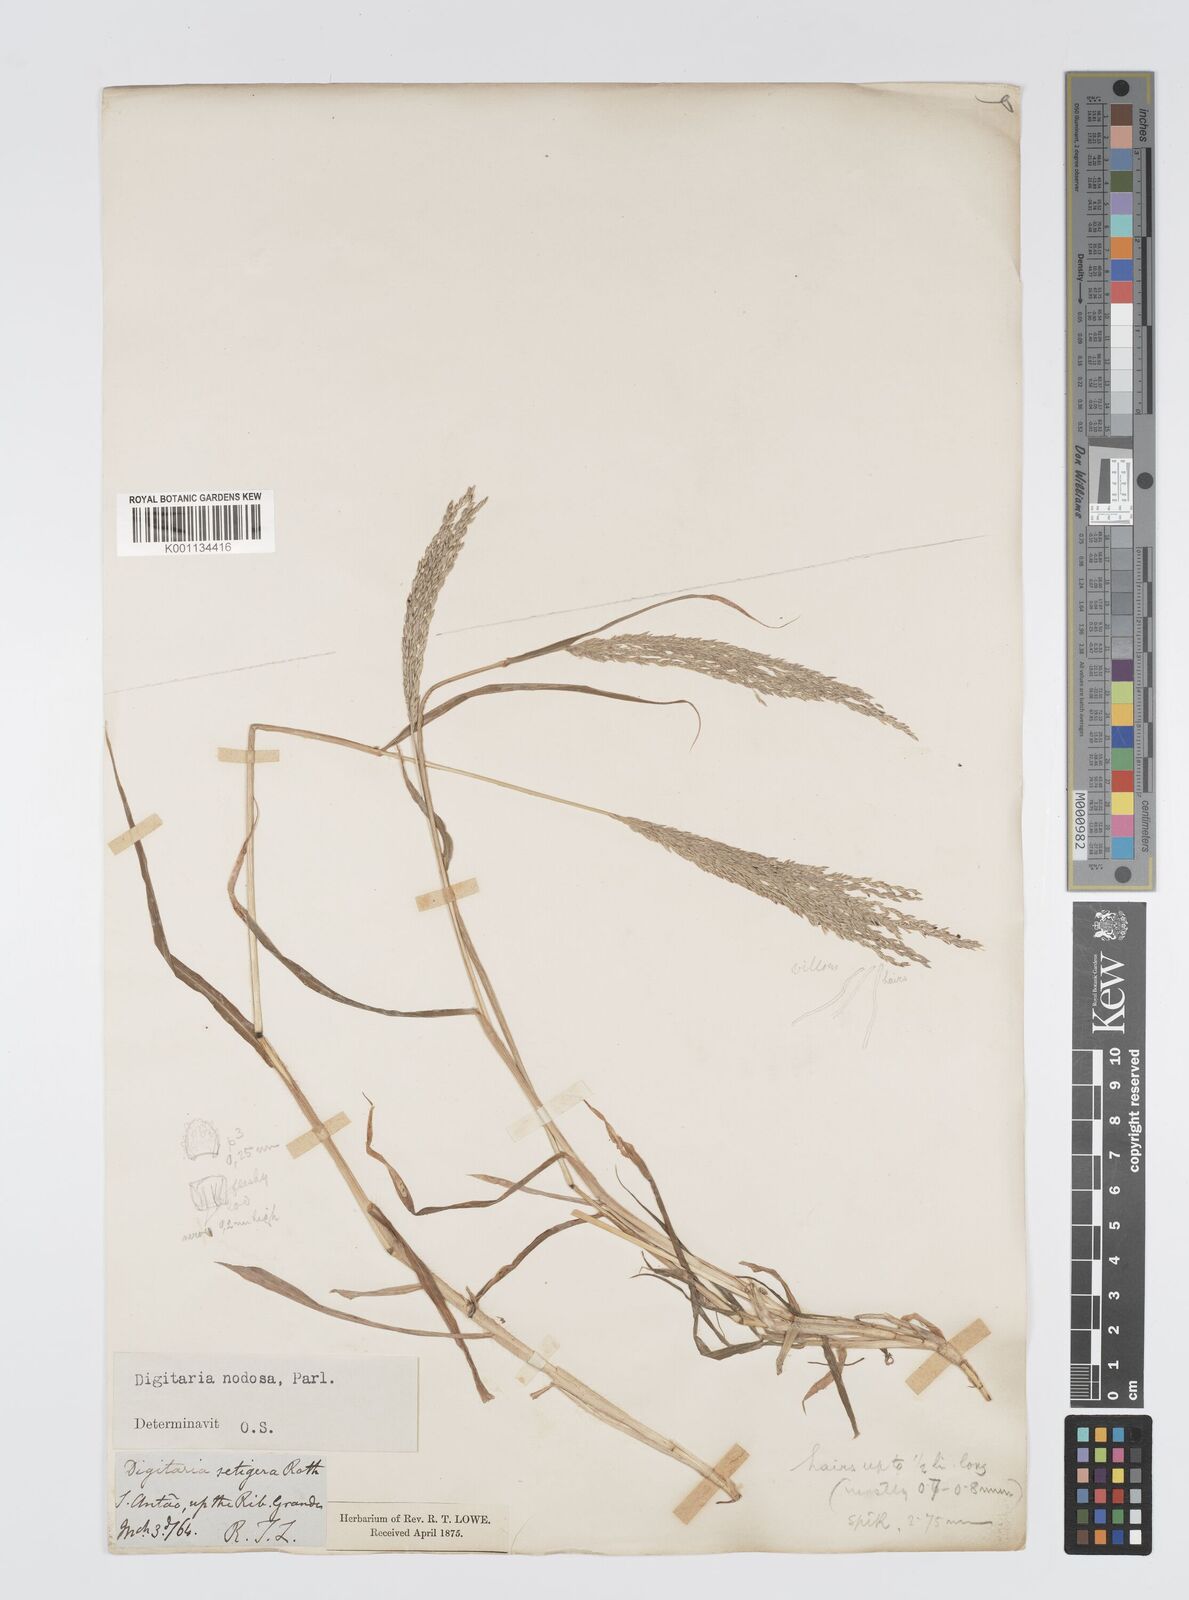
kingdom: Plantae
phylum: Tracheophyta
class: Liliopsida
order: Poales
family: Poaceae
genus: Digitaria
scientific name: Digitaria nodosa
